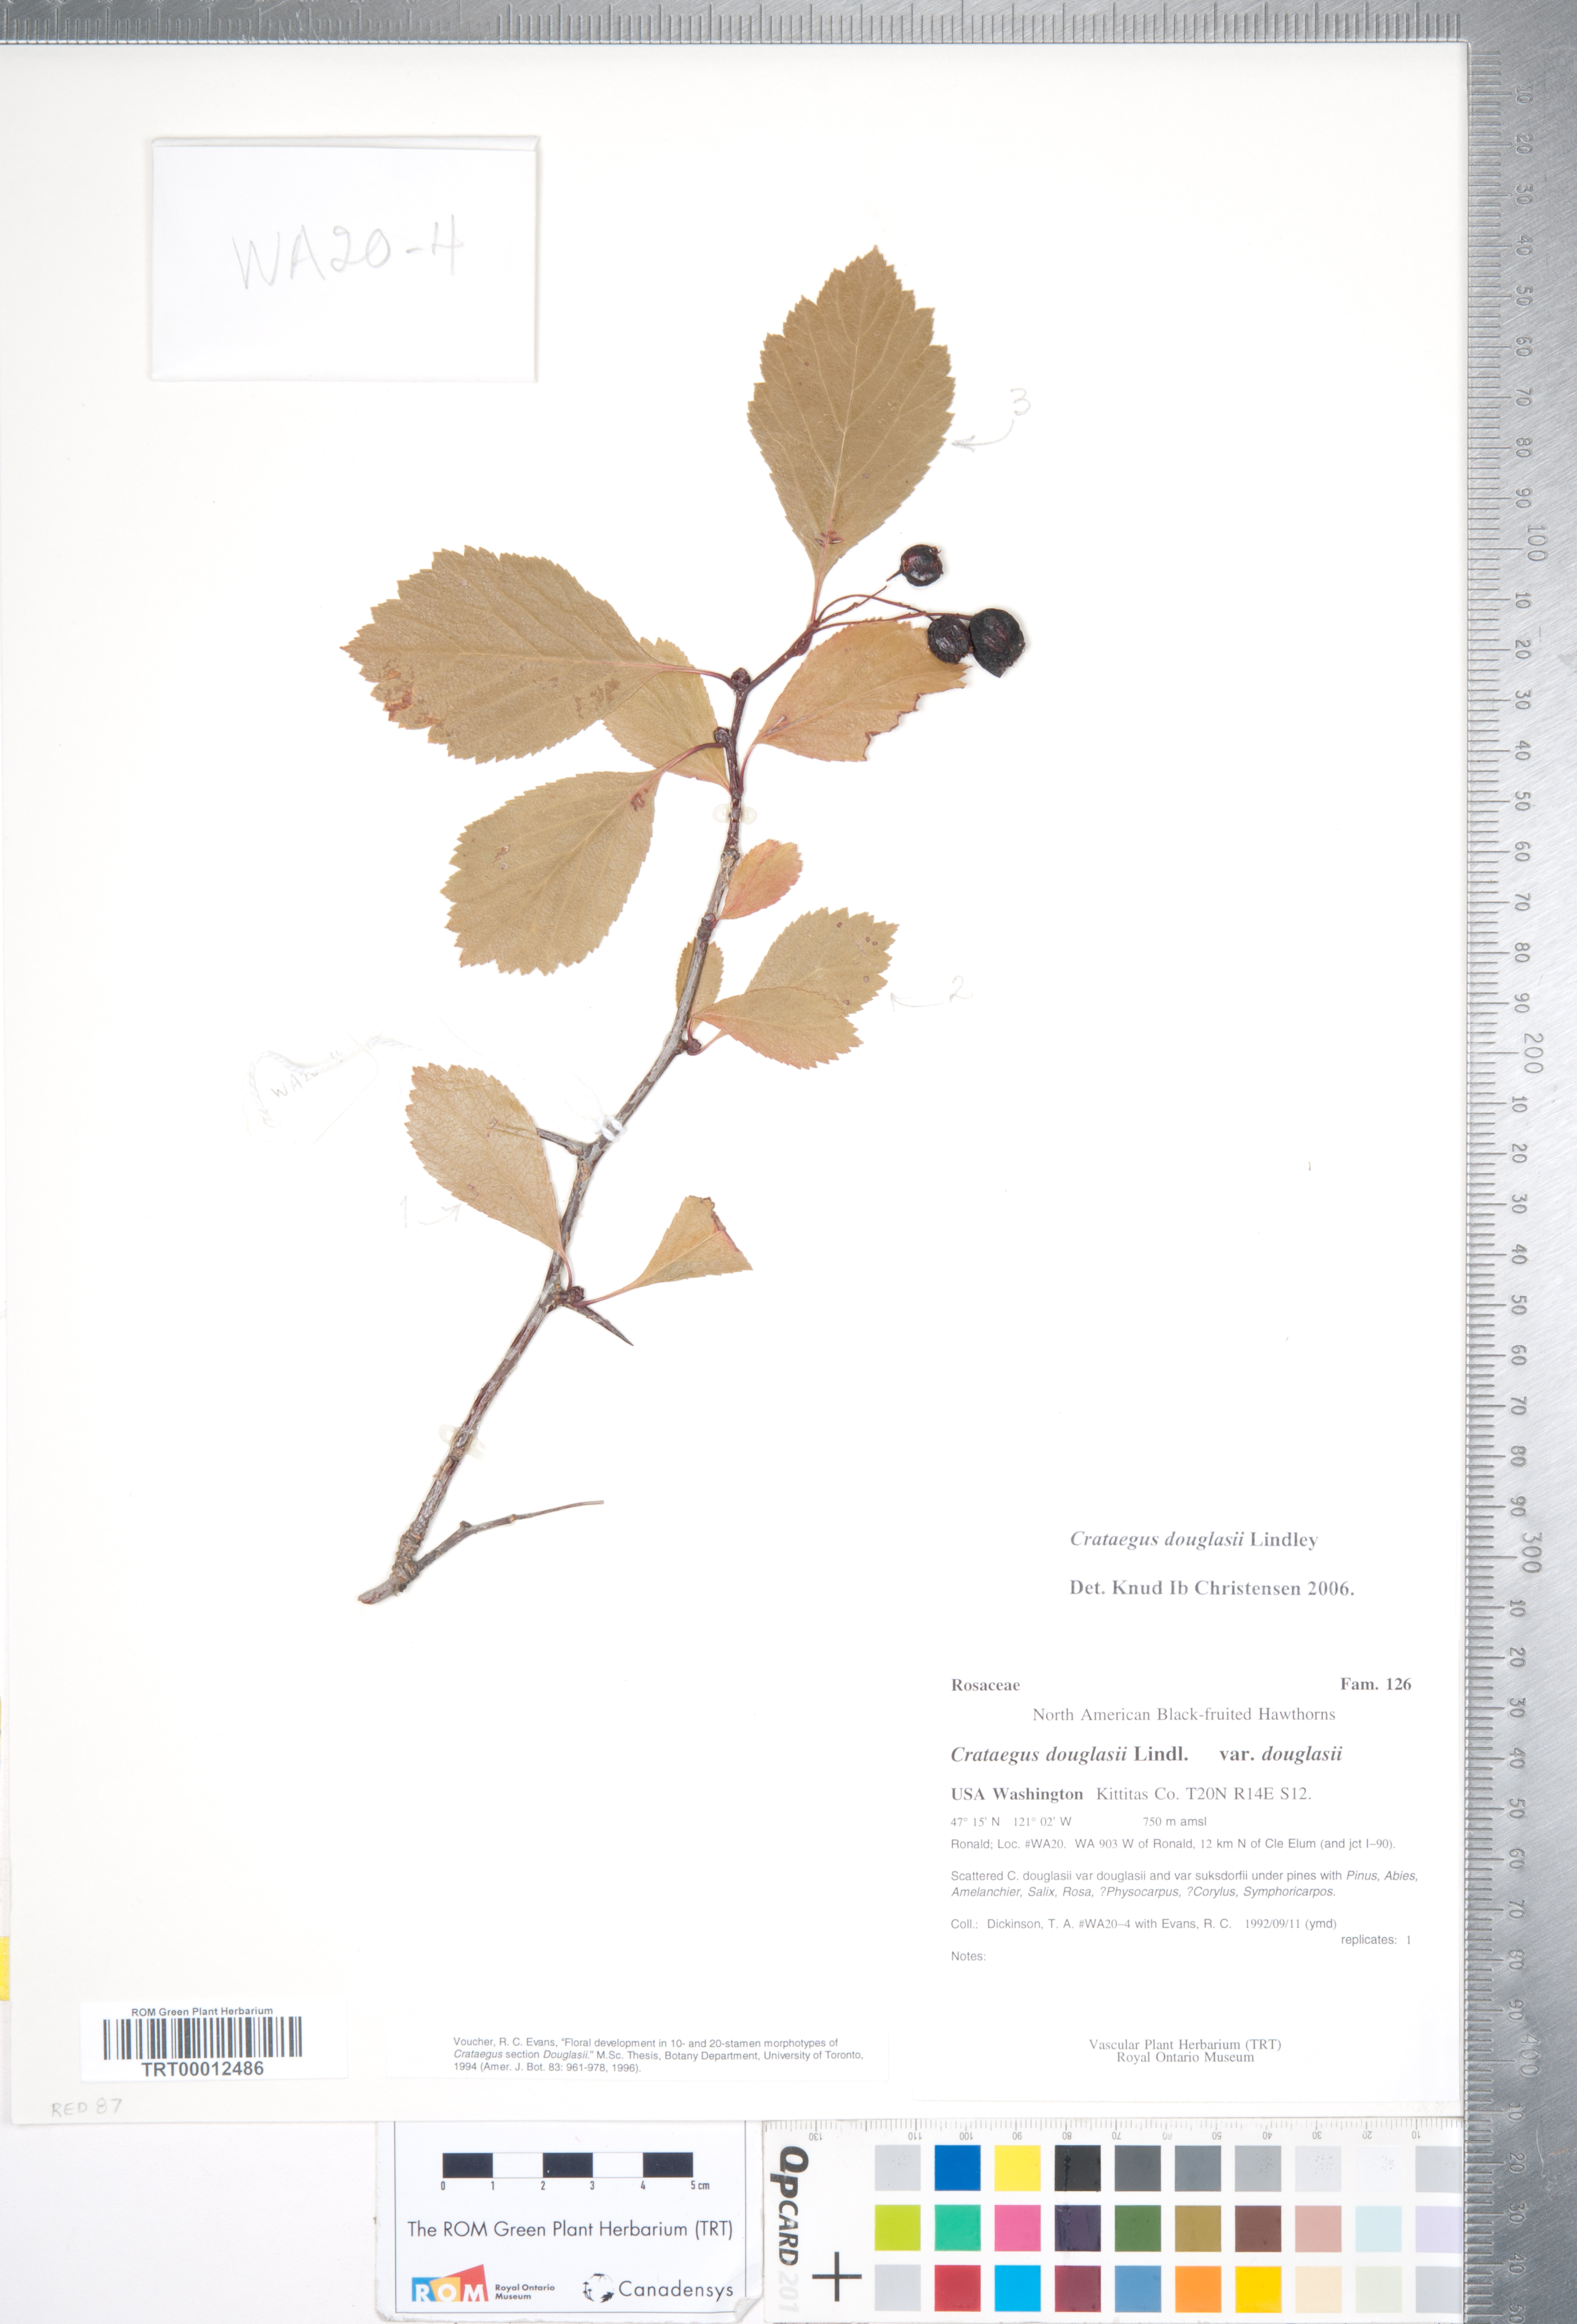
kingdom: Plantae
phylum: Tracheophyta
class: Magnoliopsida
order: Rosales
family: Rosaceae
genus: Crataegus
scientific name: Crataegus douglasii
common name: Black hawthorn
